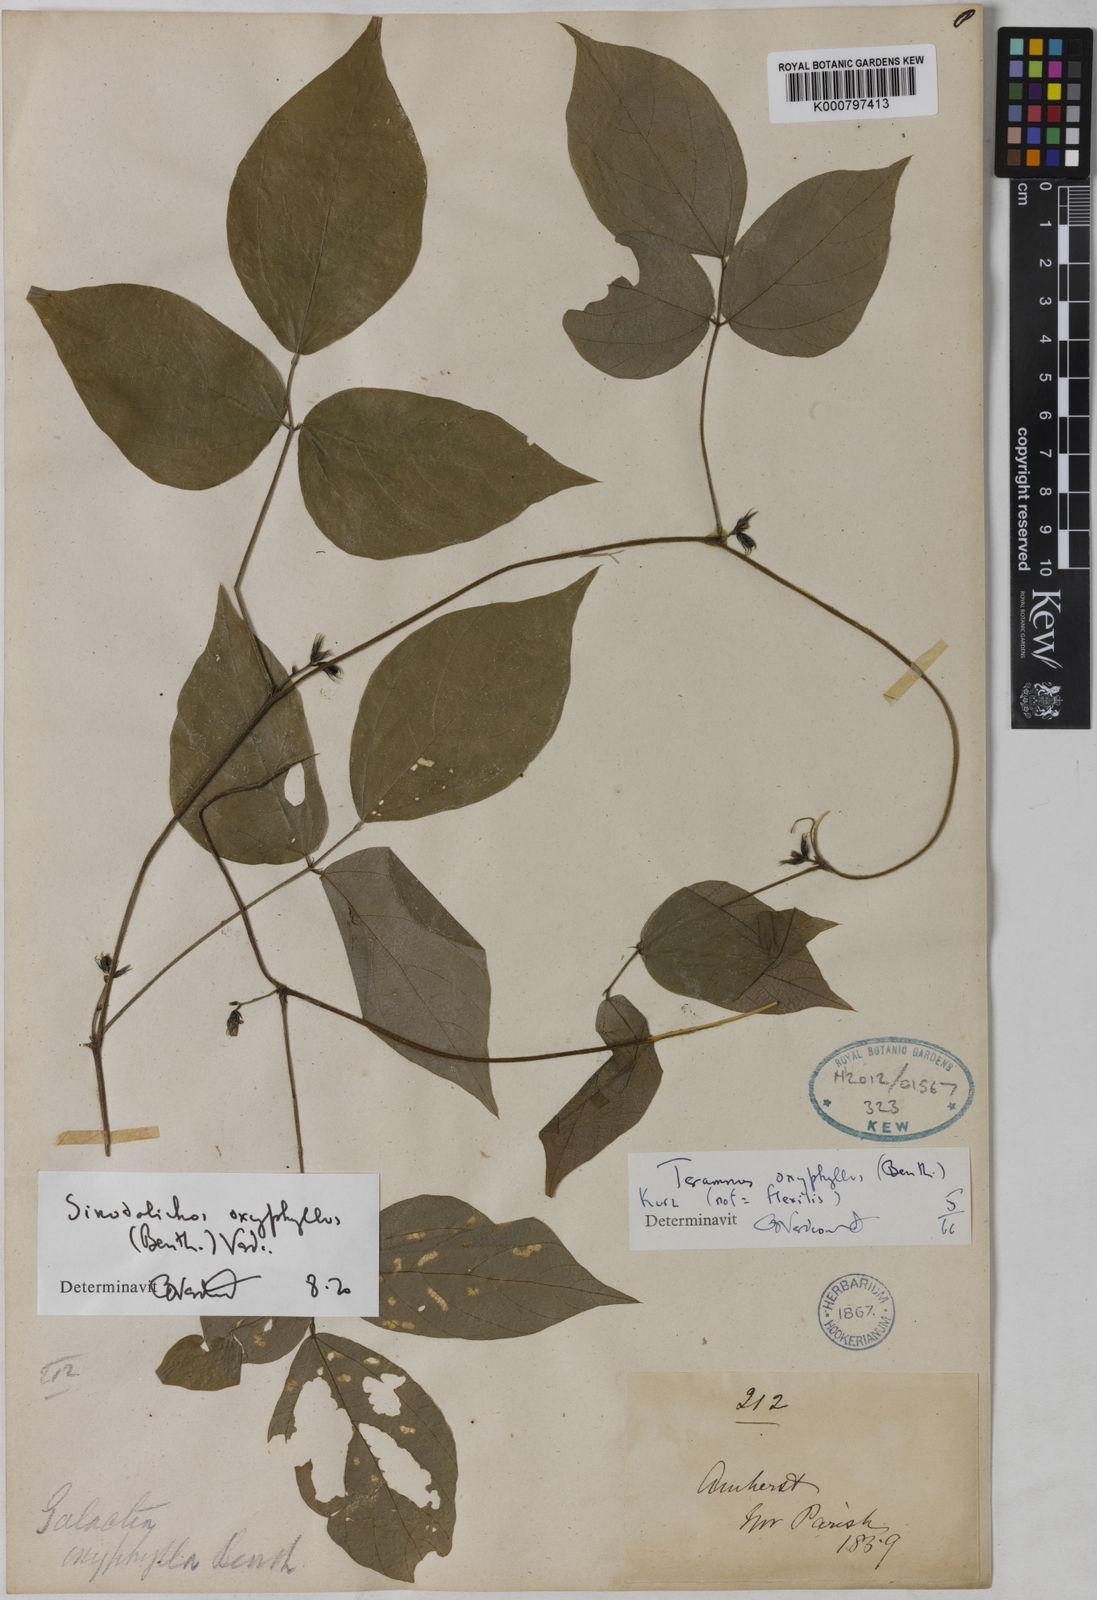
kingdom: Plantae
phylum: Tracheophyta
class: Magnoliopsida
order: Fabales
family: Fabaceae
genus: Sinodolichos
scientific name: Sinodolichos oxyphyllus
